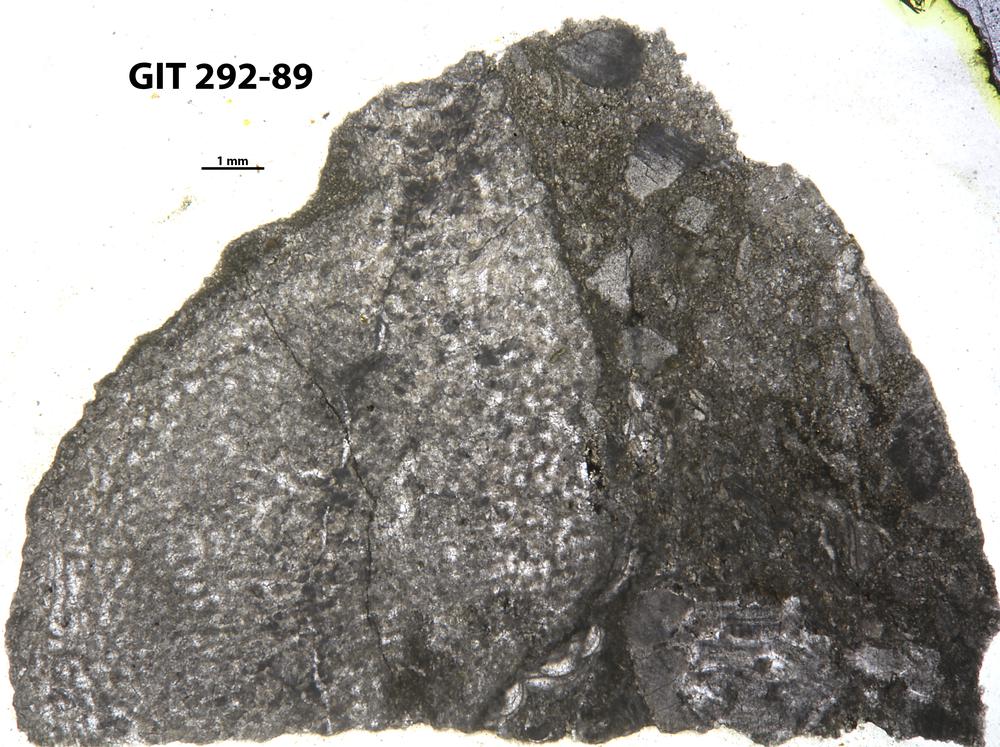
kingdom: Animalia
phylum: Porifera
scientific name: Porifera
